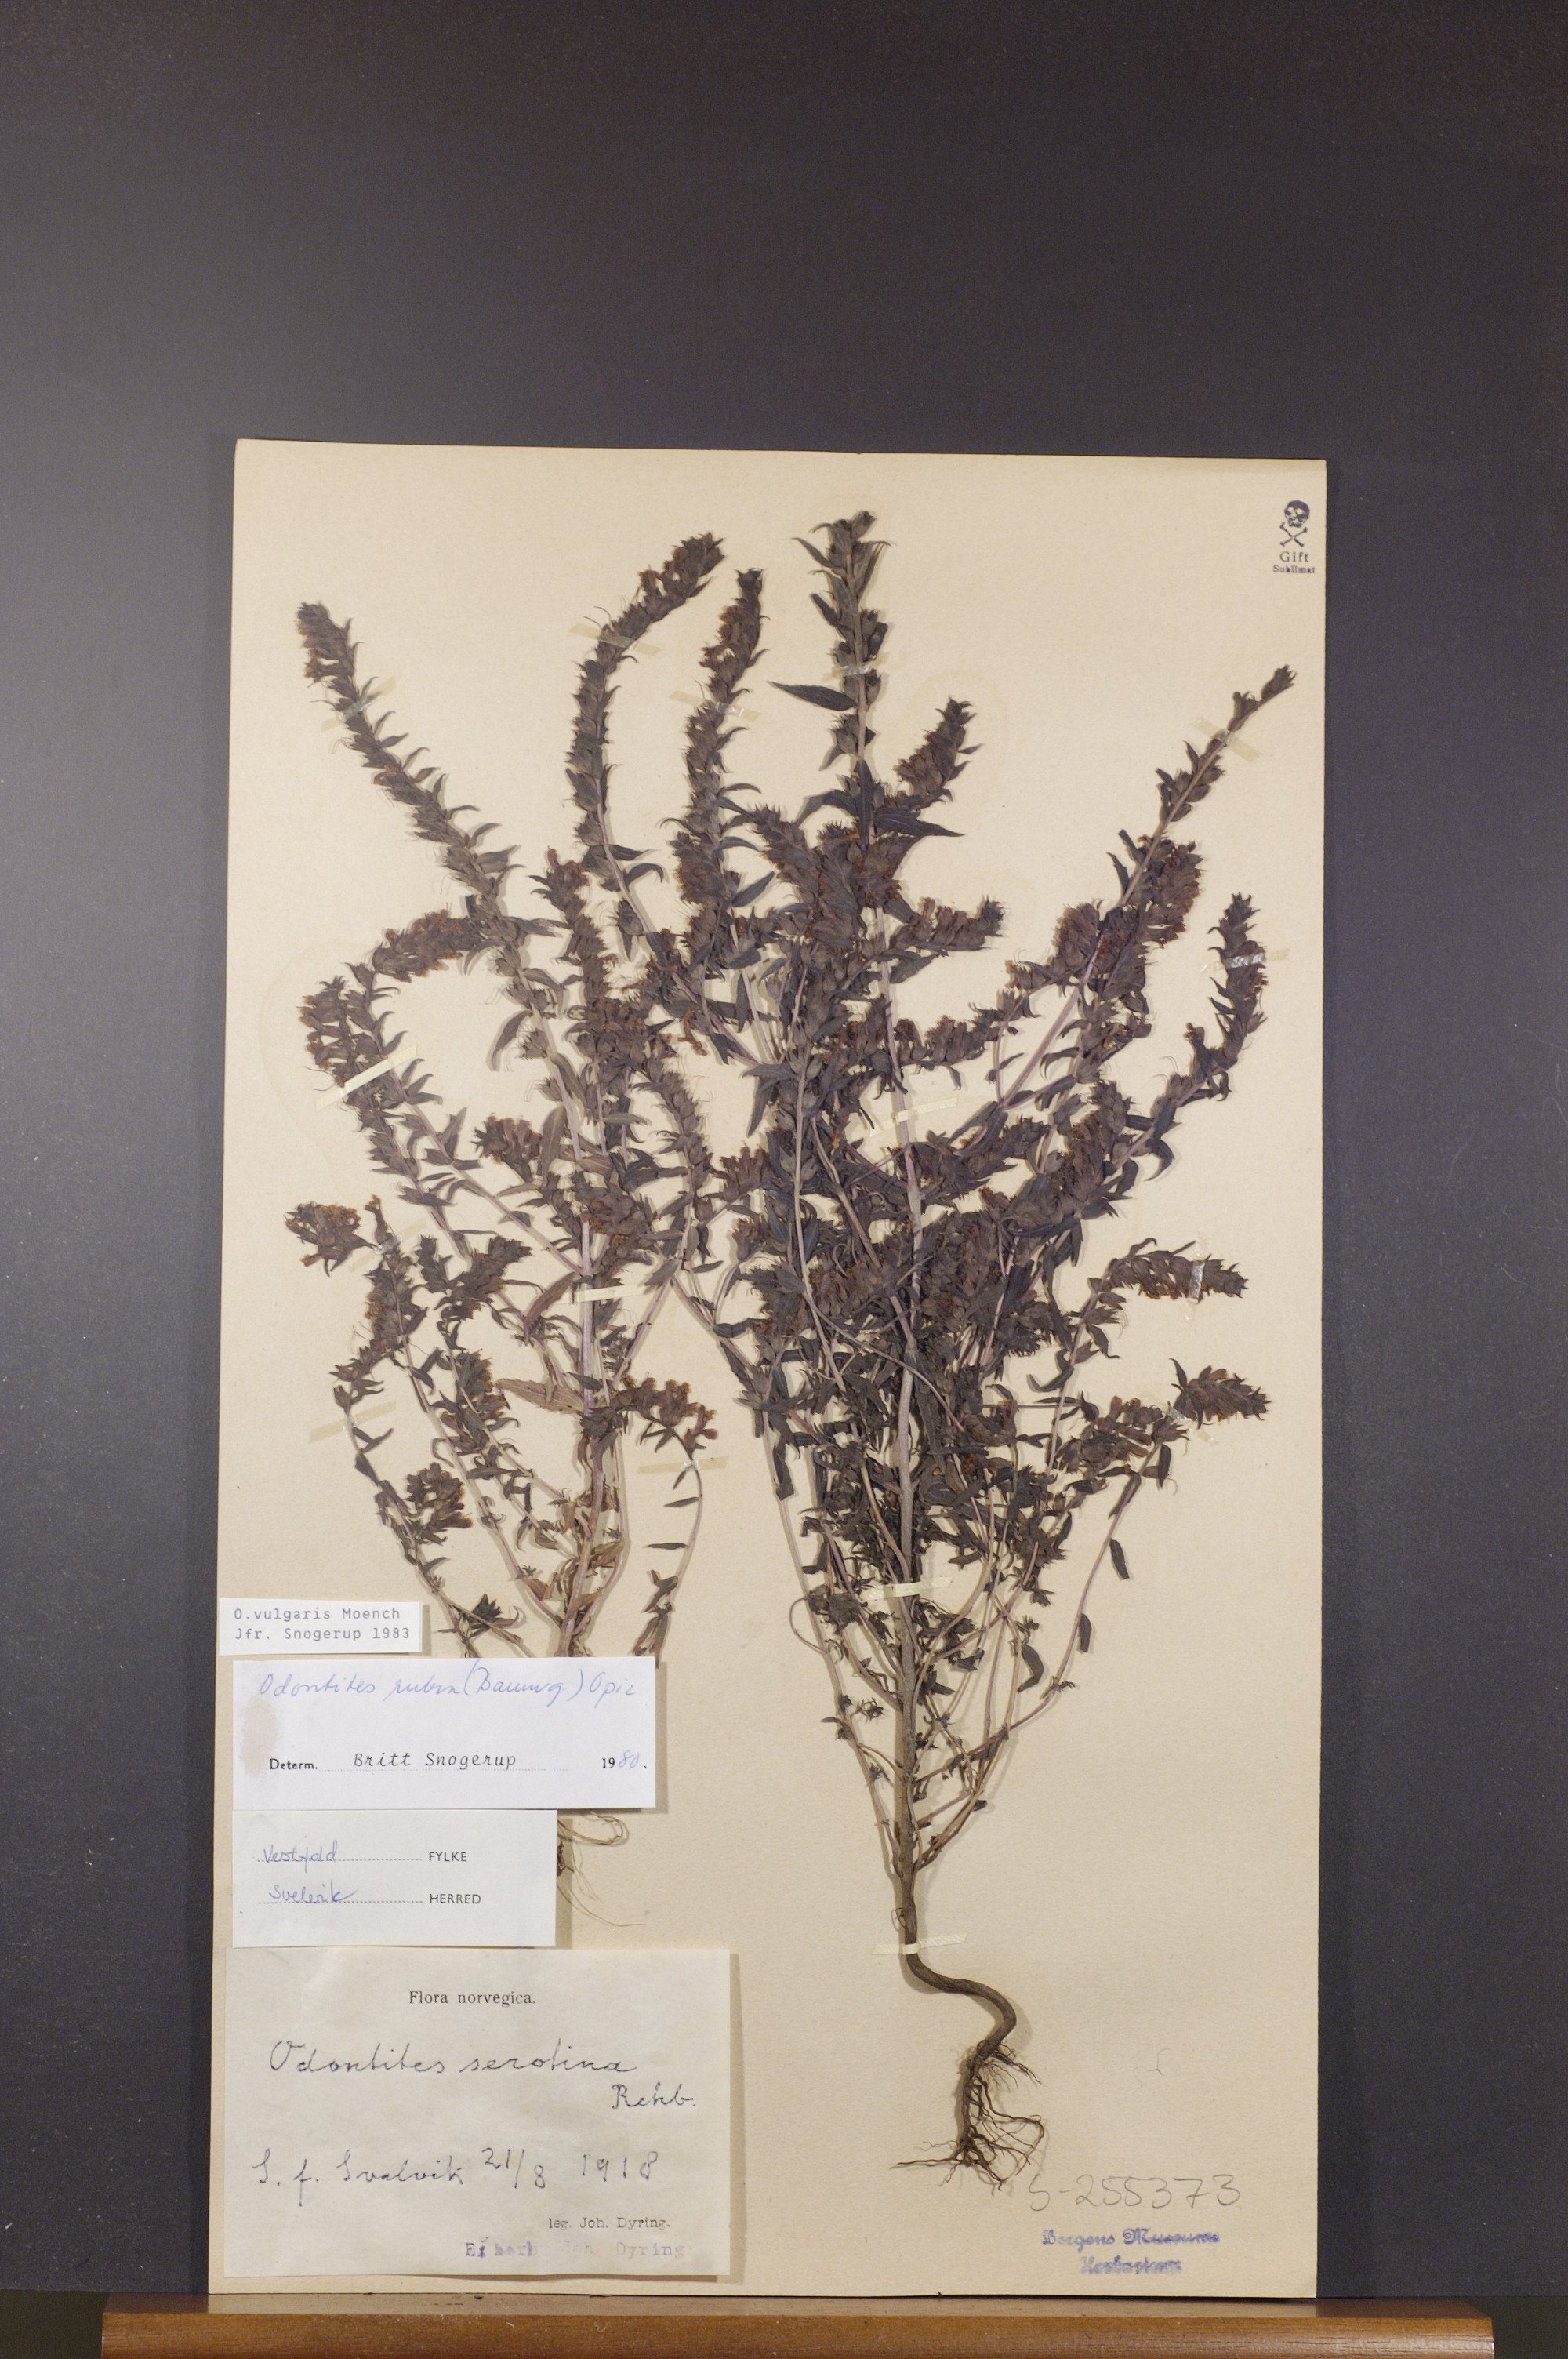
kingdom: Plantae
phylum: Tracheophyta
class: Magnoliopsida
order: Lamiales
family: Orobanchaceae
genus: Odontites
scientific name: Odontites vulgaris
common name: Broomrape
